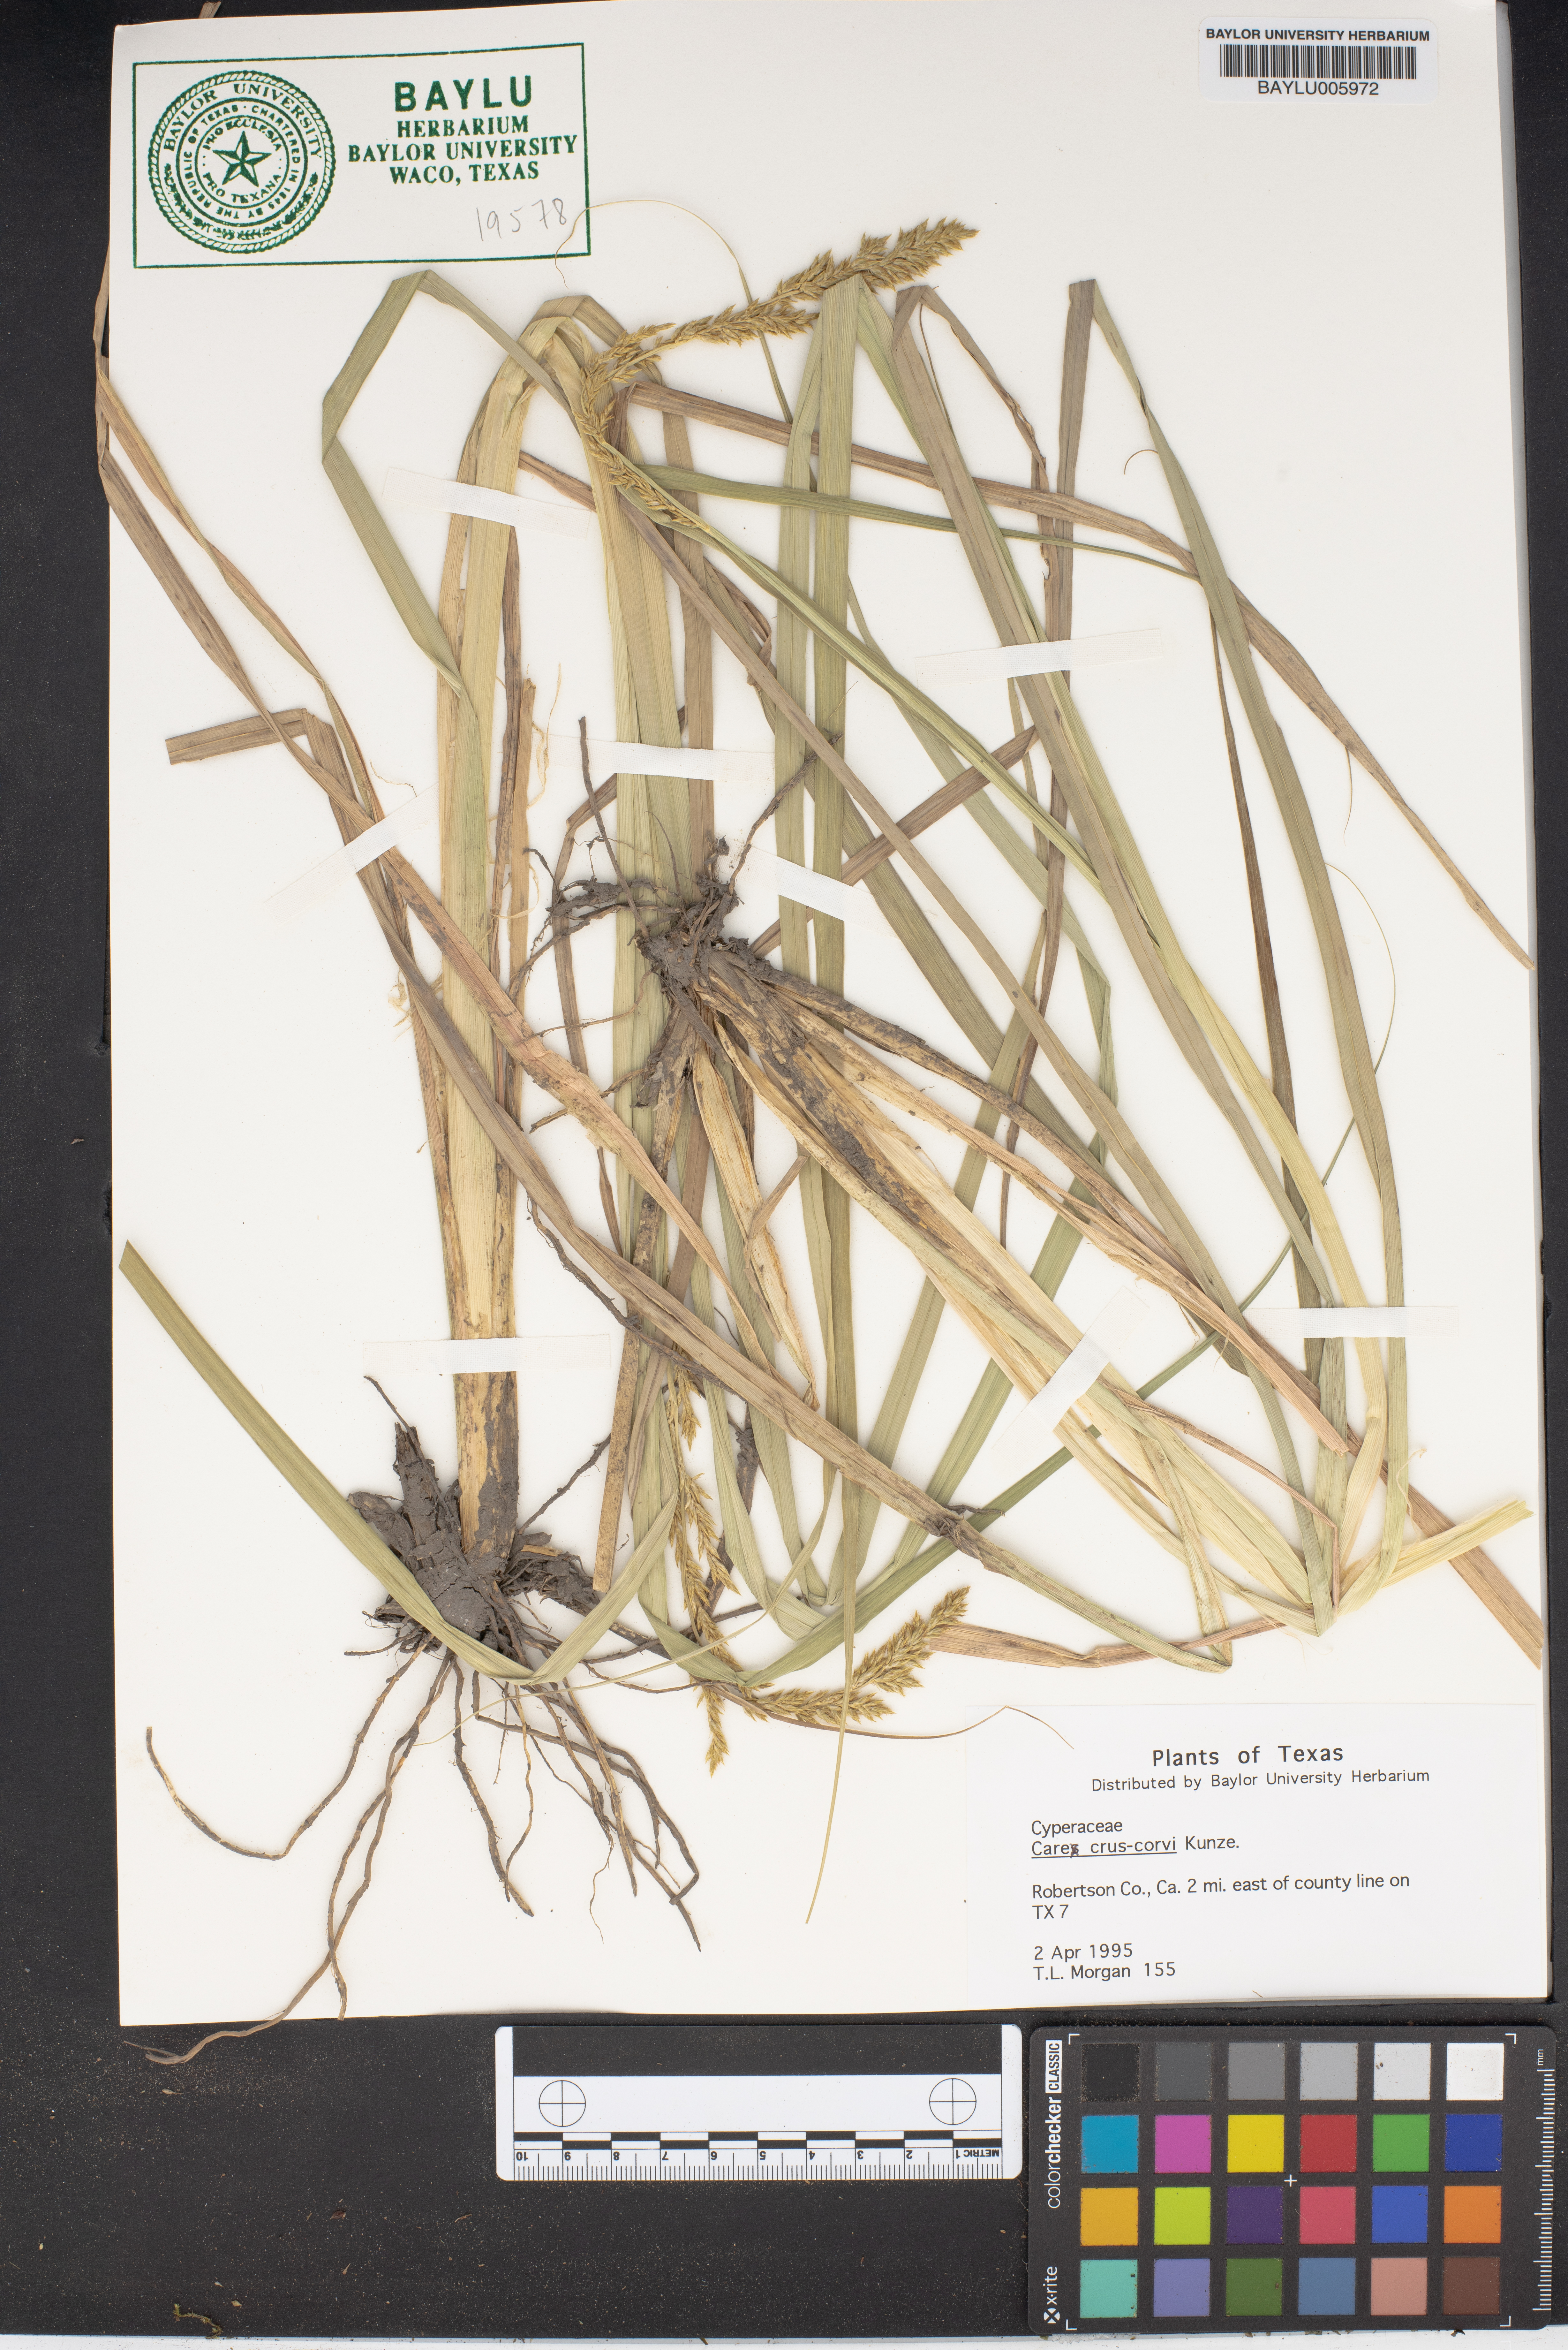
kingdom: Plantae
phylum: Tracheophyta
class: Liliopsida
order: Poales
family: Cyperaceae
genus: Carex
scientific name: Carex crus-corvi
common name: Crow-spur sedge
